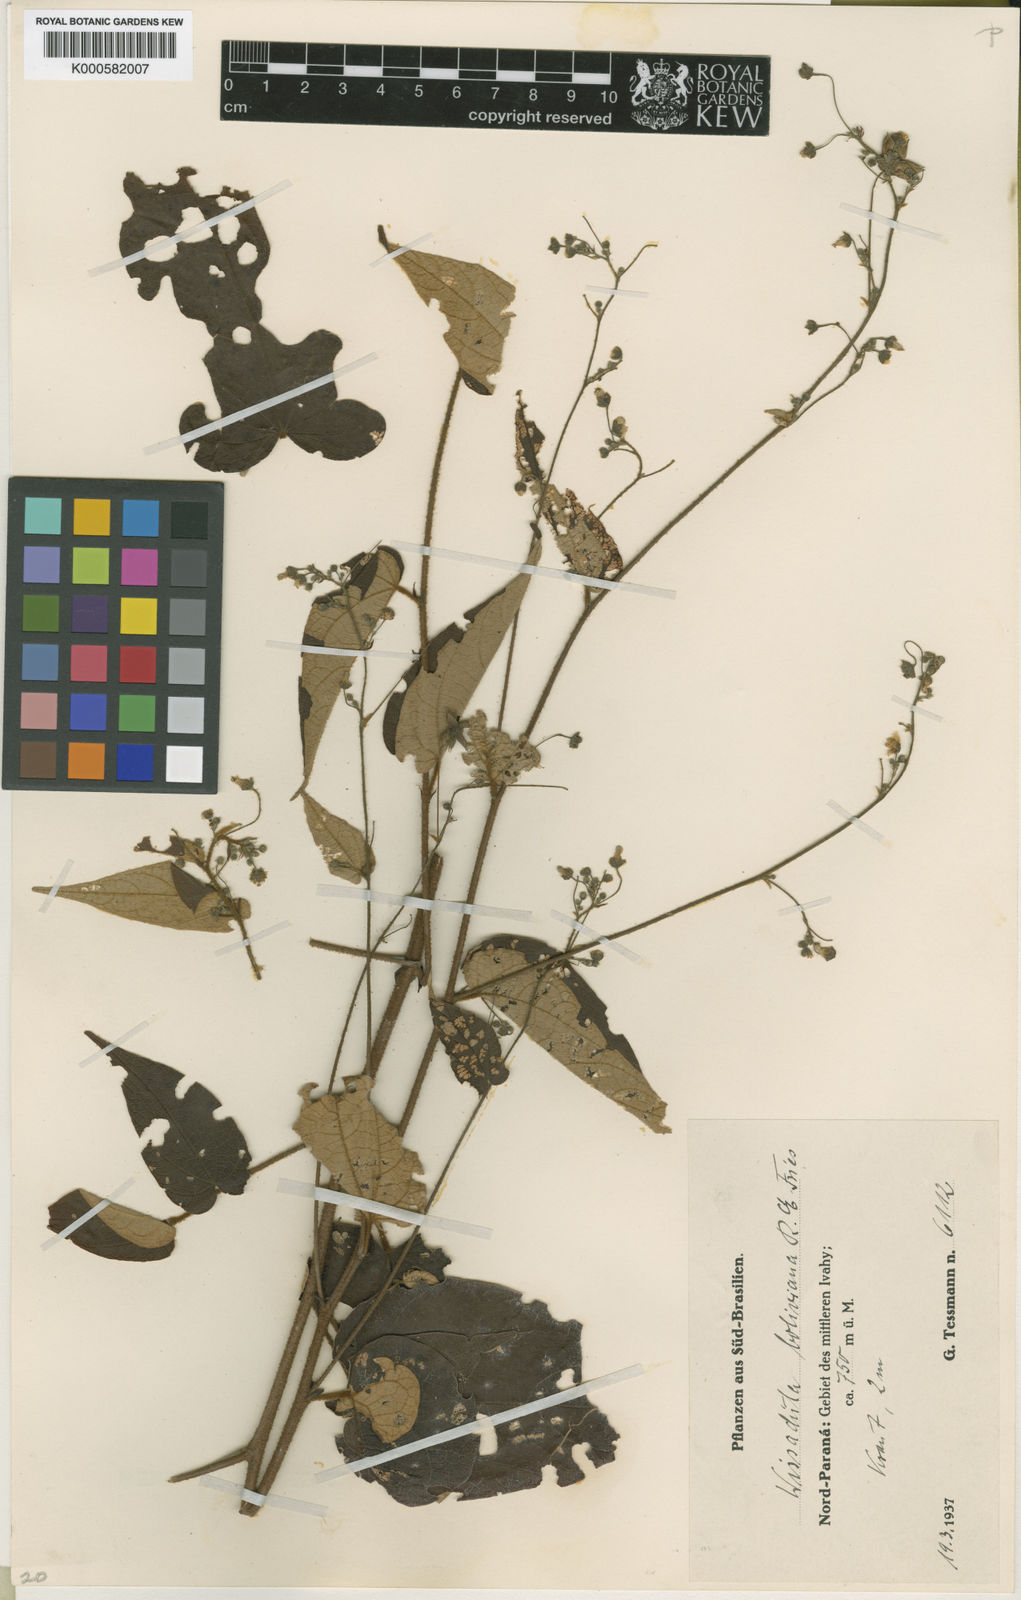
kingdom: Plantae
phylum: Tracheophyta
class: Magnoliopsida
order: Malvales
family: Malvaceae
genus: Wissadula
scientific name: Wissadula boliviana
